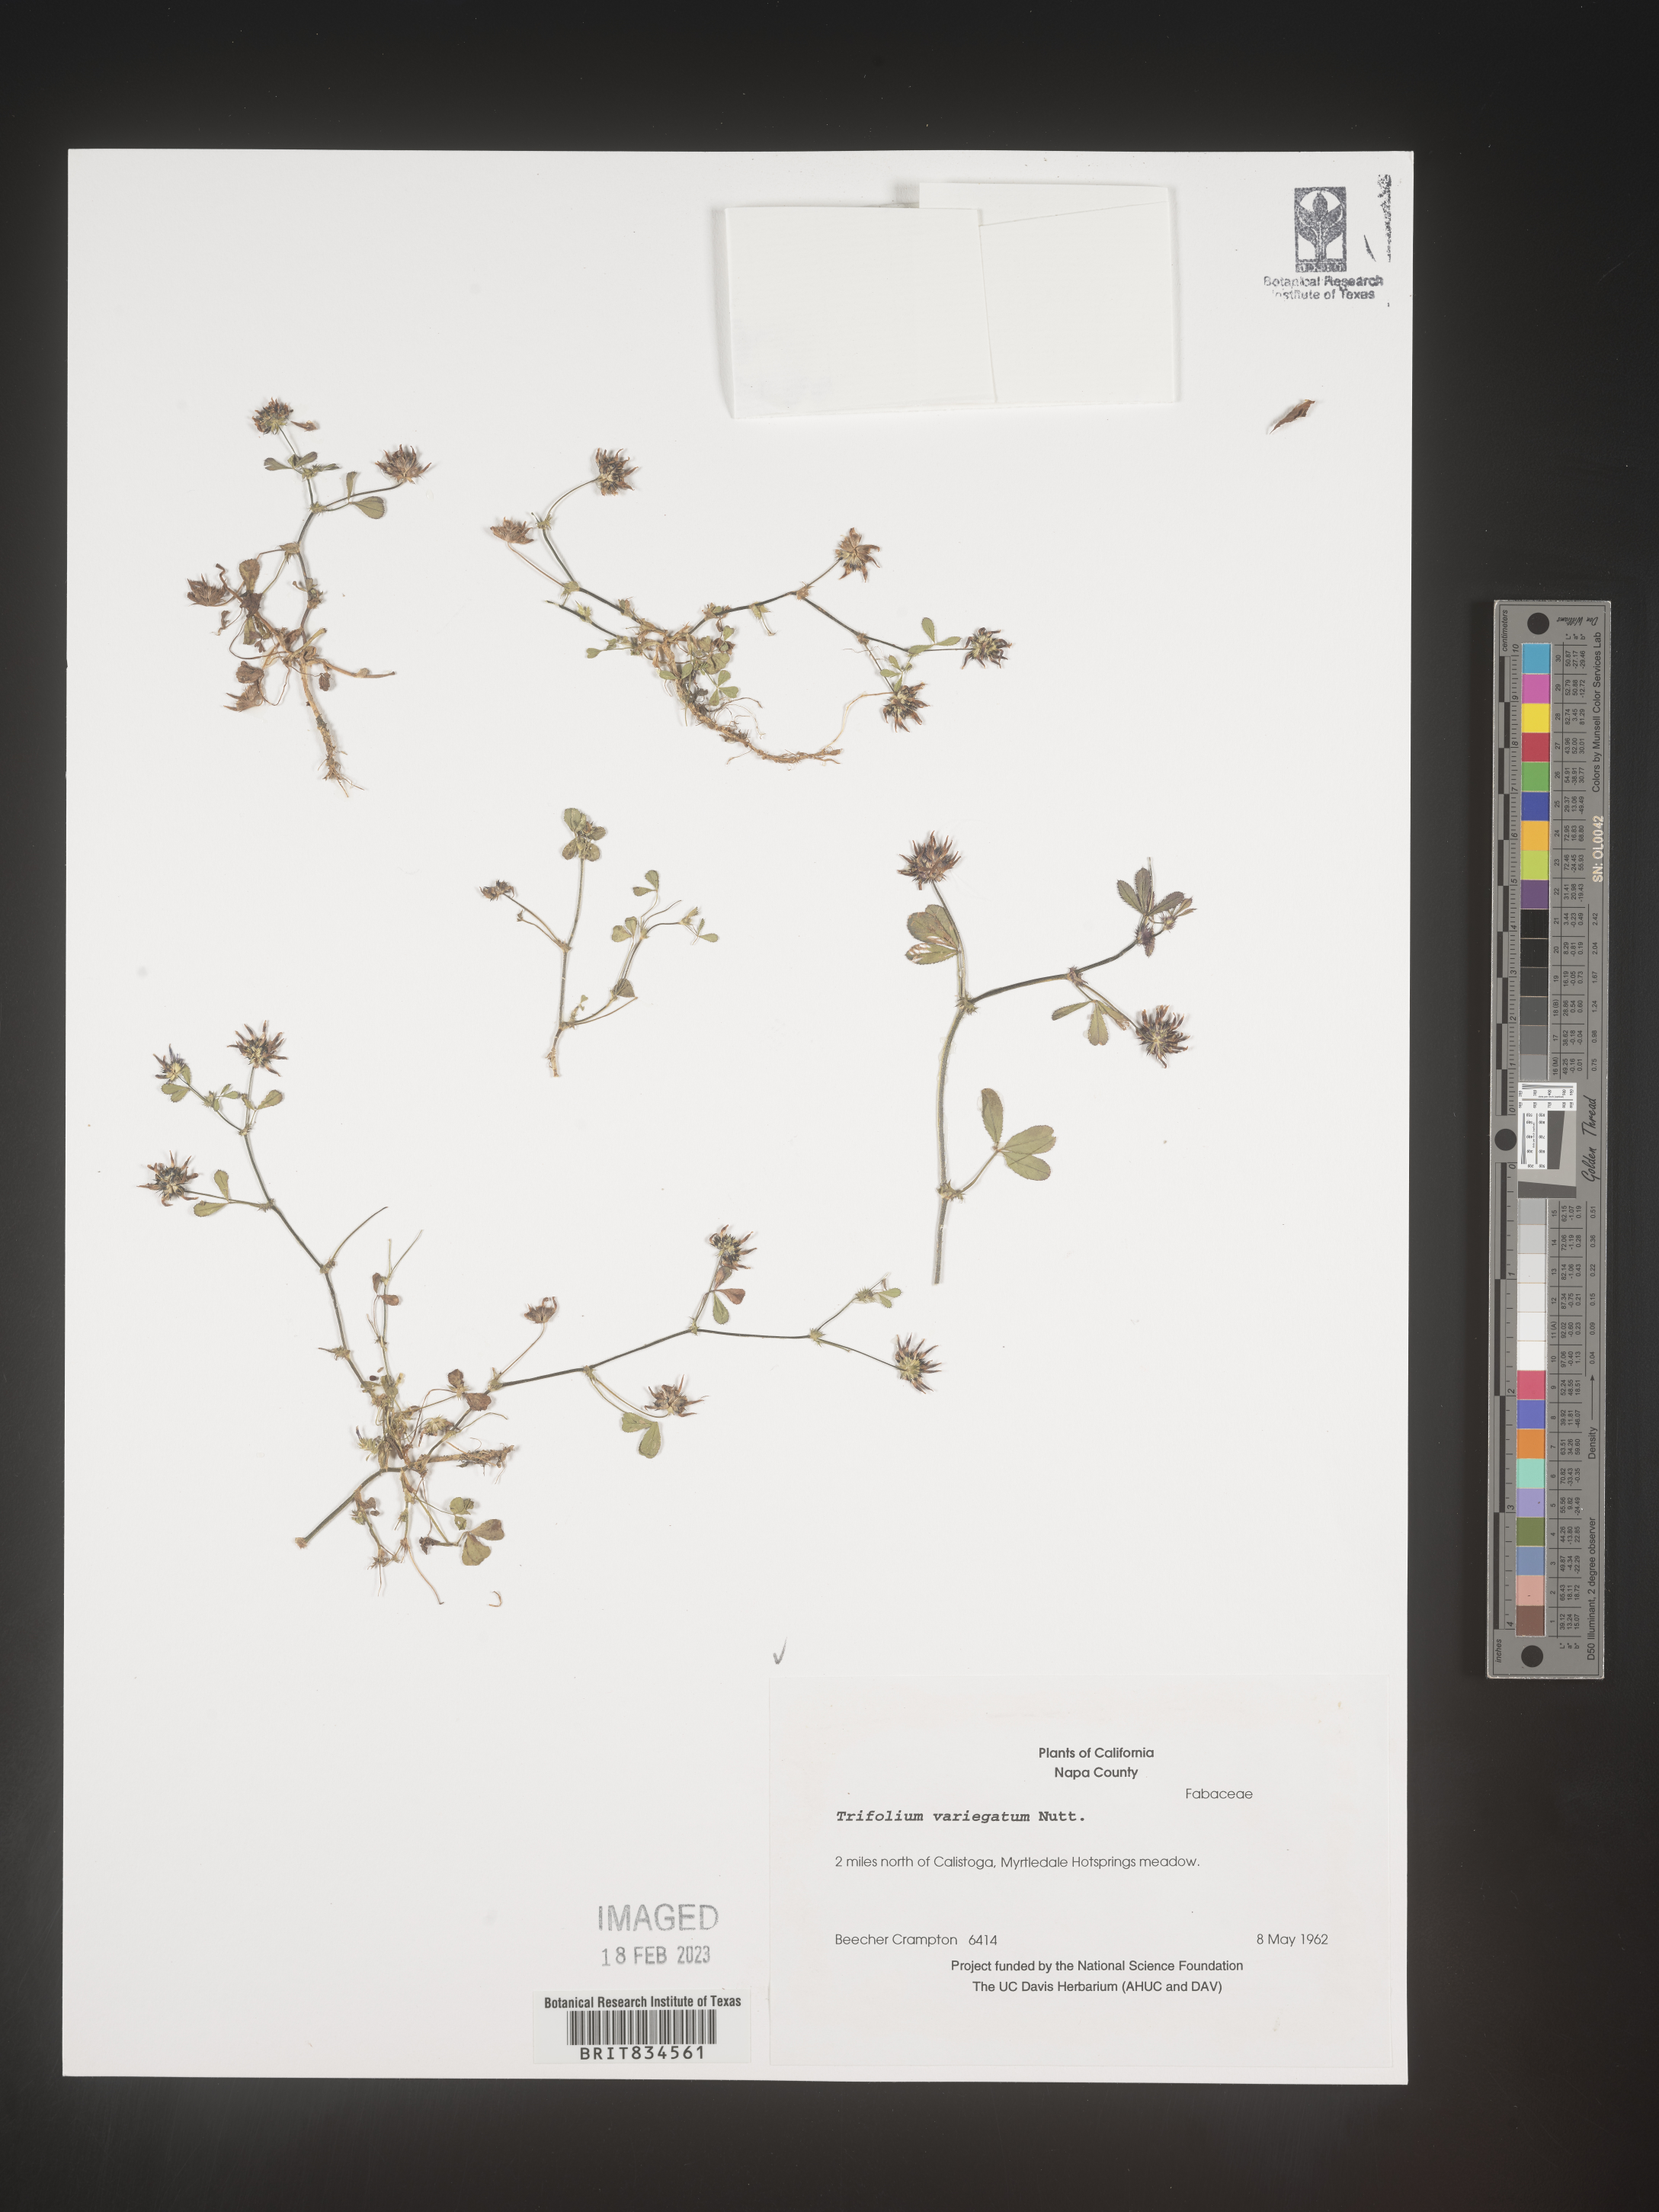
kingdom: Plantae
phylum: Tracheophyta
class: Magnoliopsida
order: Fabales
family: Fabaceae
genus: Trifolium
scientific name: Trifolium
